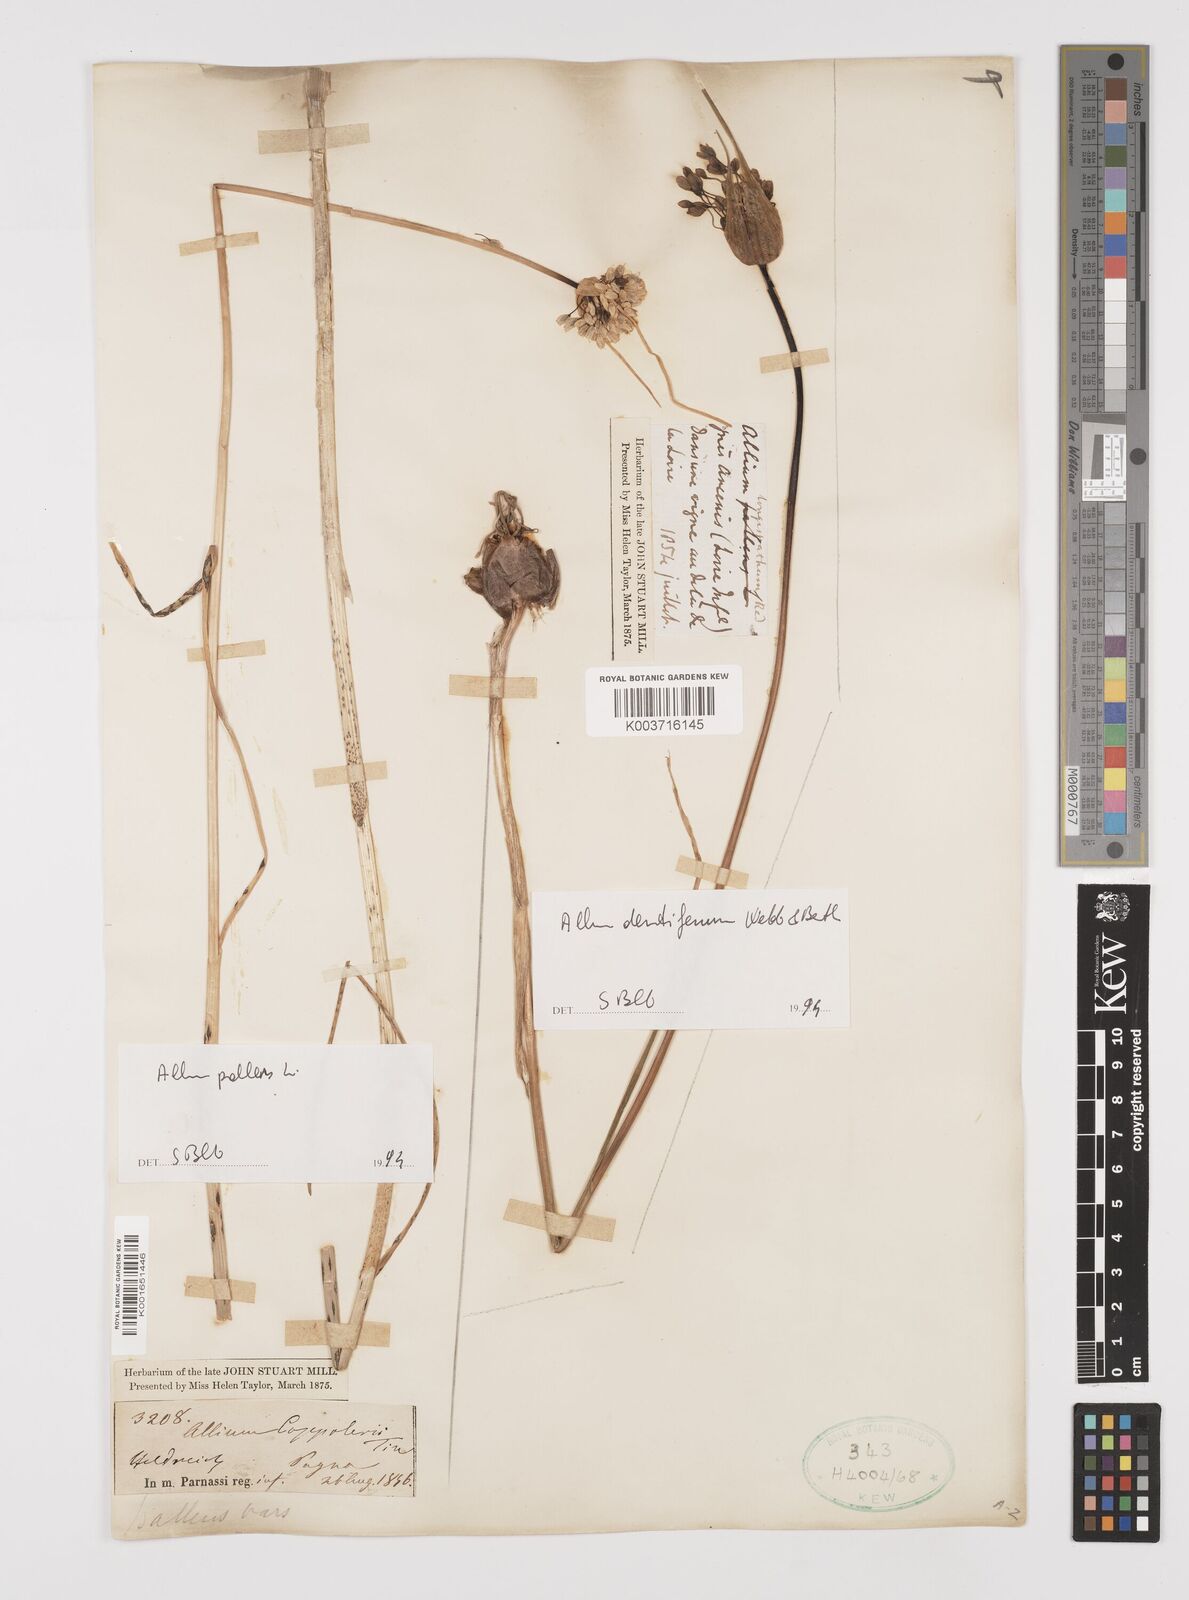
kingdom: Plantae
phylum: Tracheophyta
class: Liliopsida
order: Asparagales
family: Amaryllidaceae
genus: Allium
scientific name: Allium pallens
